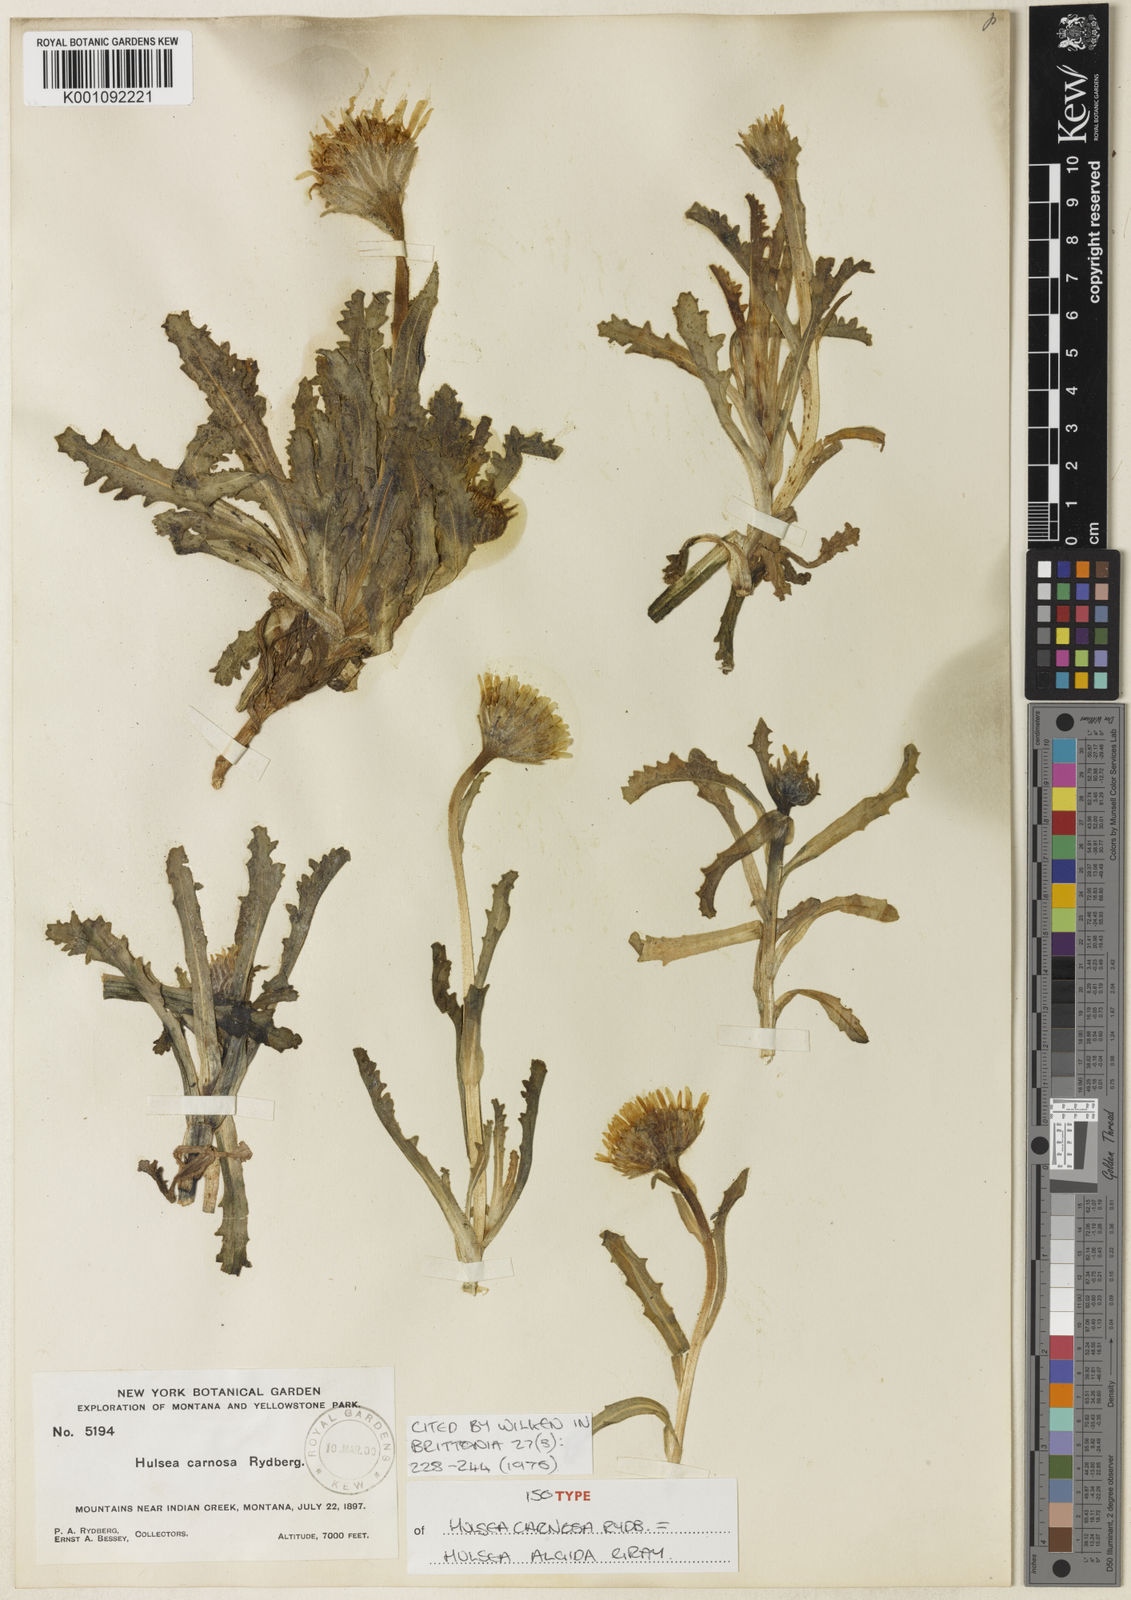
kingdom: Plantae
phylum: Tracheophyta
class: Magnoliopsida
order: Asterales
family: Asteraceae
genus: Hulsea
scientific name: Hulsea algida
